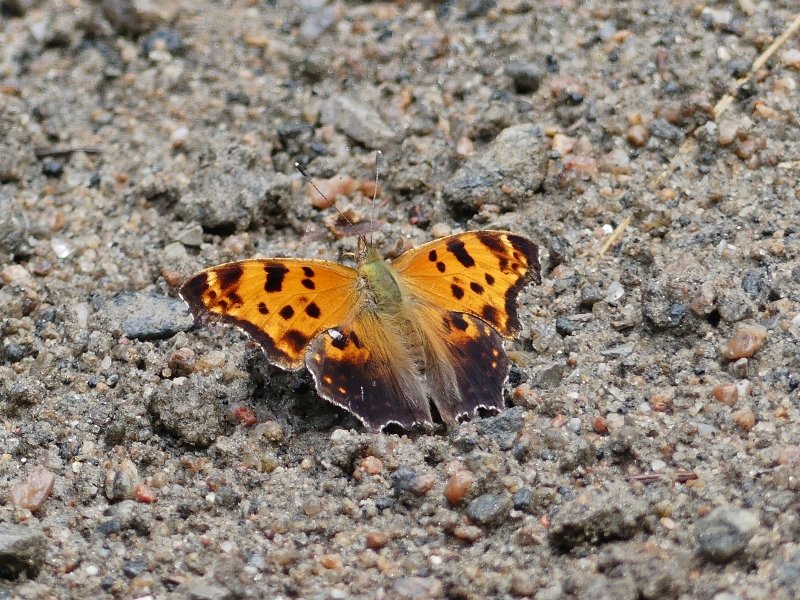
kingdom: Animalia
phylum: Arthropoda
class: Insecta
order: Lepidoptera
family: Nymphalidae
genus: Polygonia
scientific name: Polygonia comma
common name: Eastern Comma
